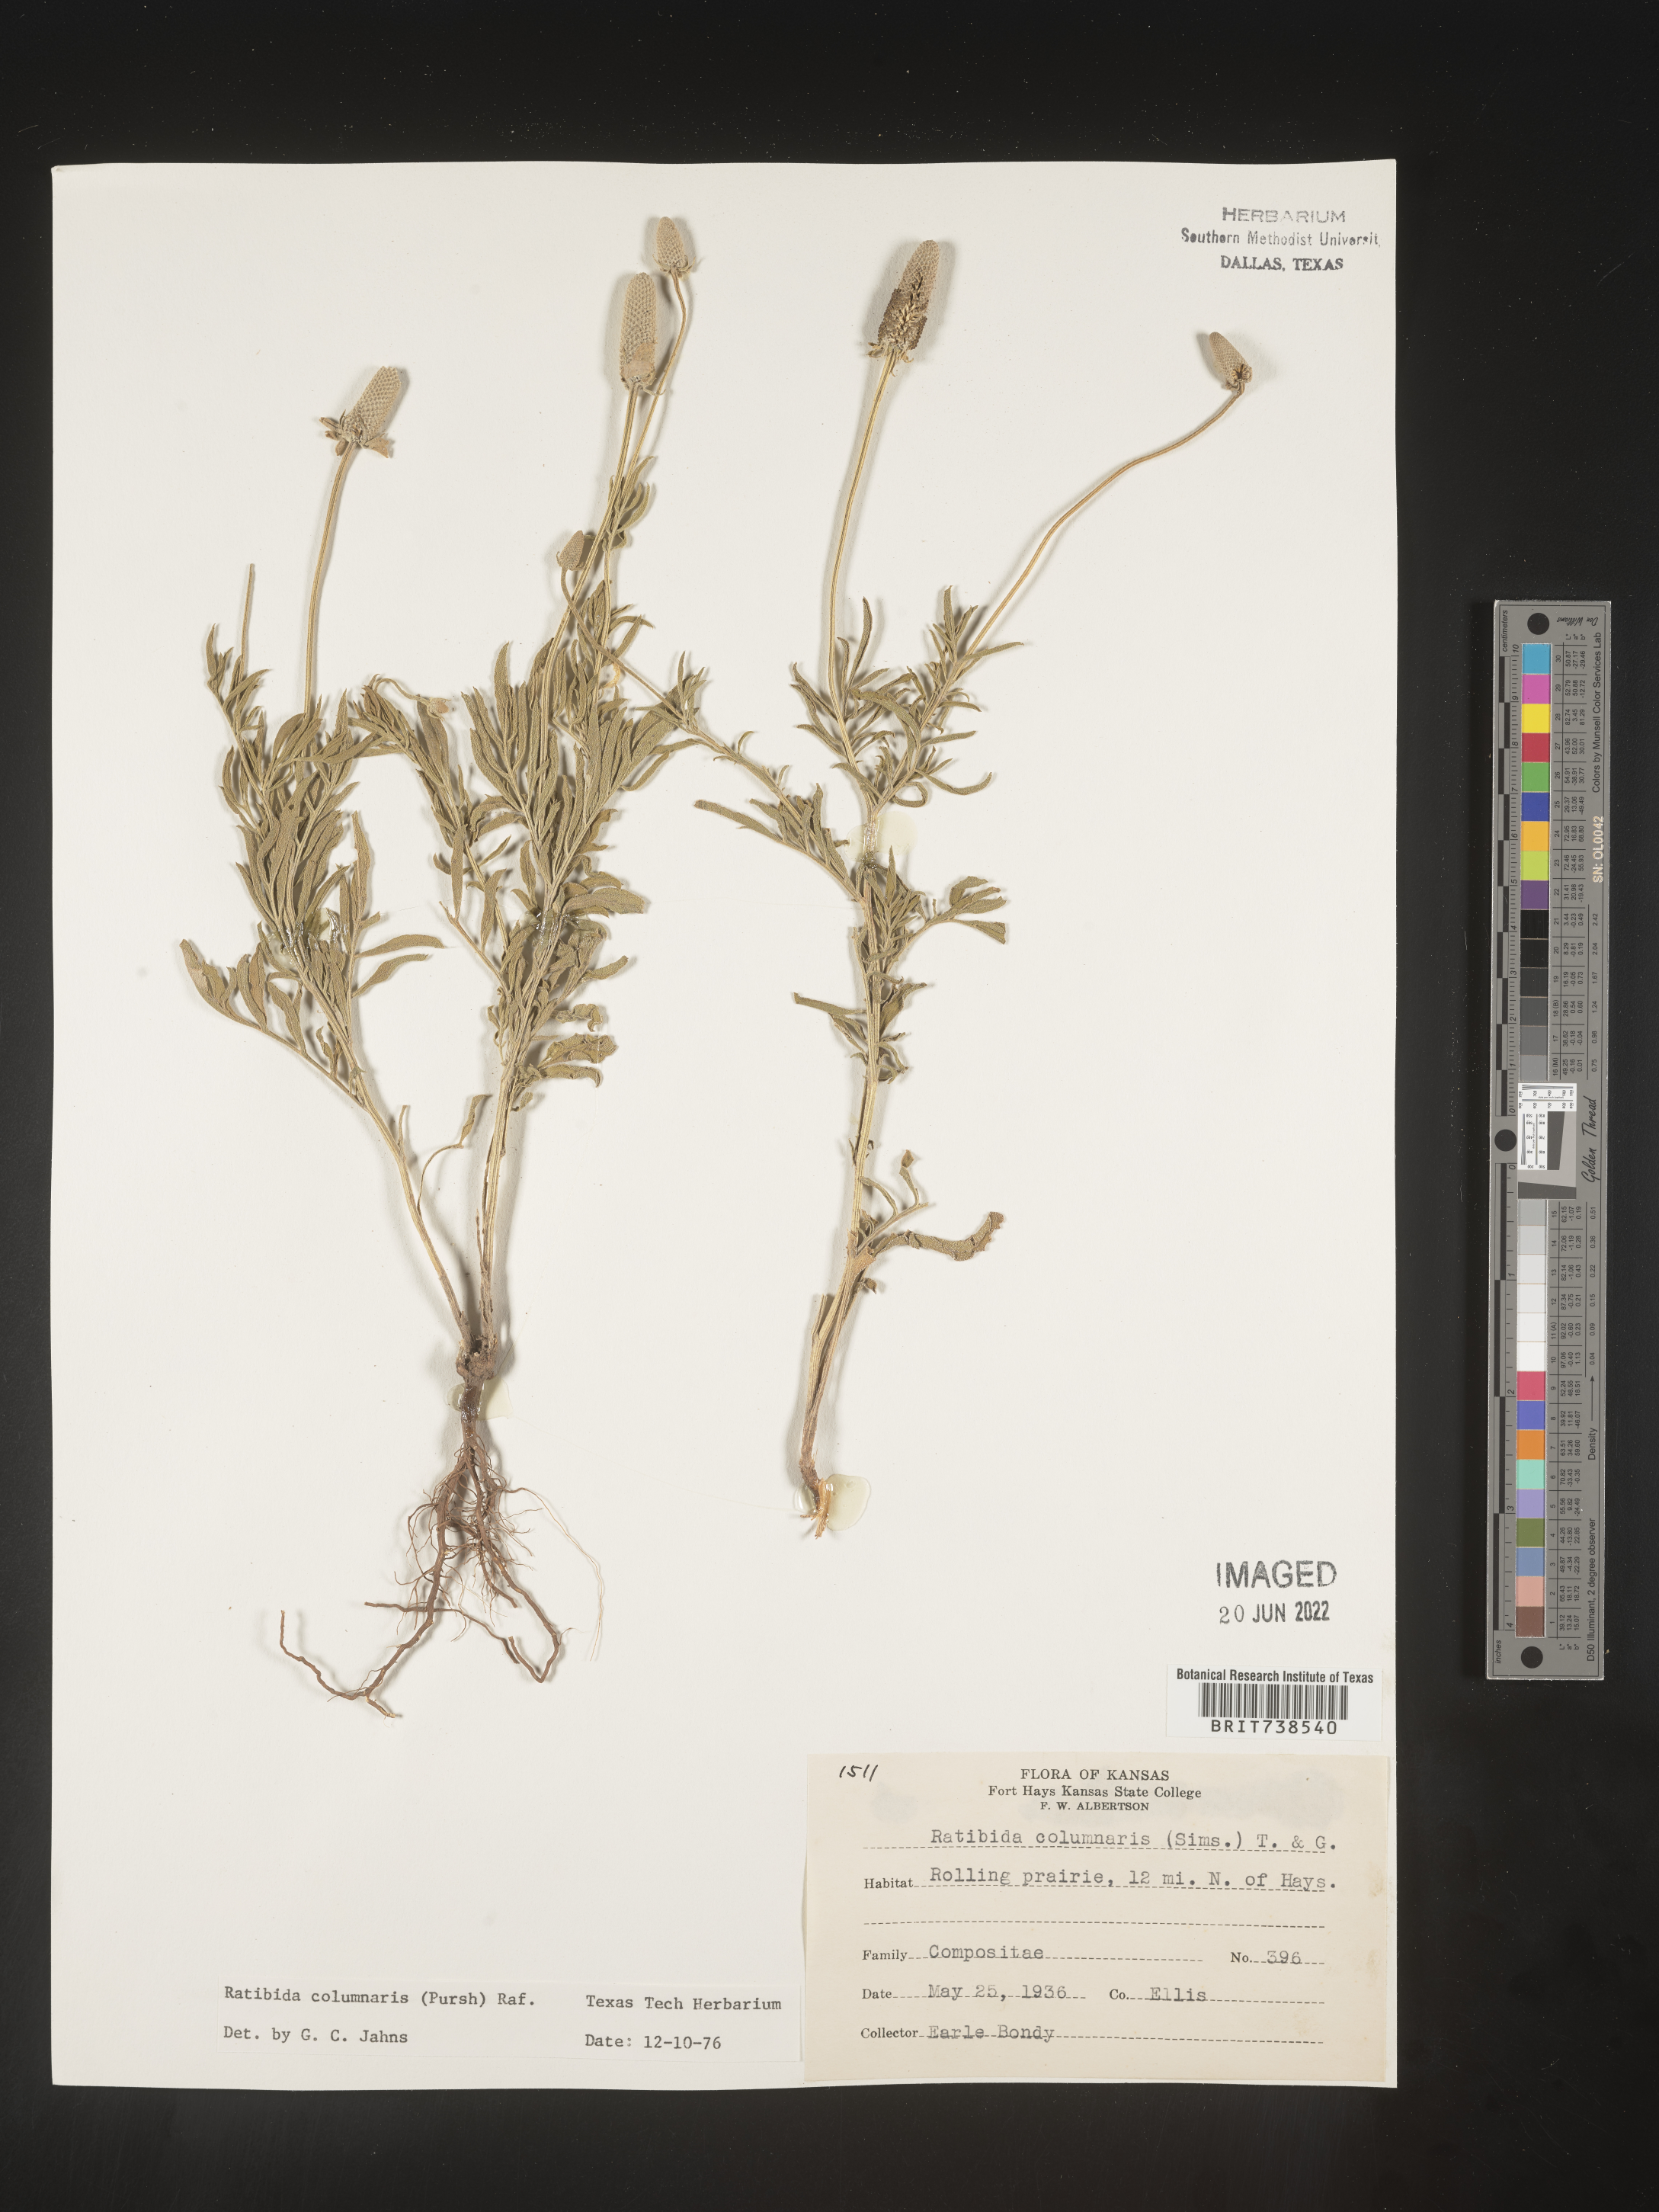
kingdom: Plantae
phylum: Tracheophyta
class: Magnoliopsida
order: Asterales
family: Asteraceae
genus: Ratibida
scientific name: Ratibida columnifera
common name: Prairie coneflower
